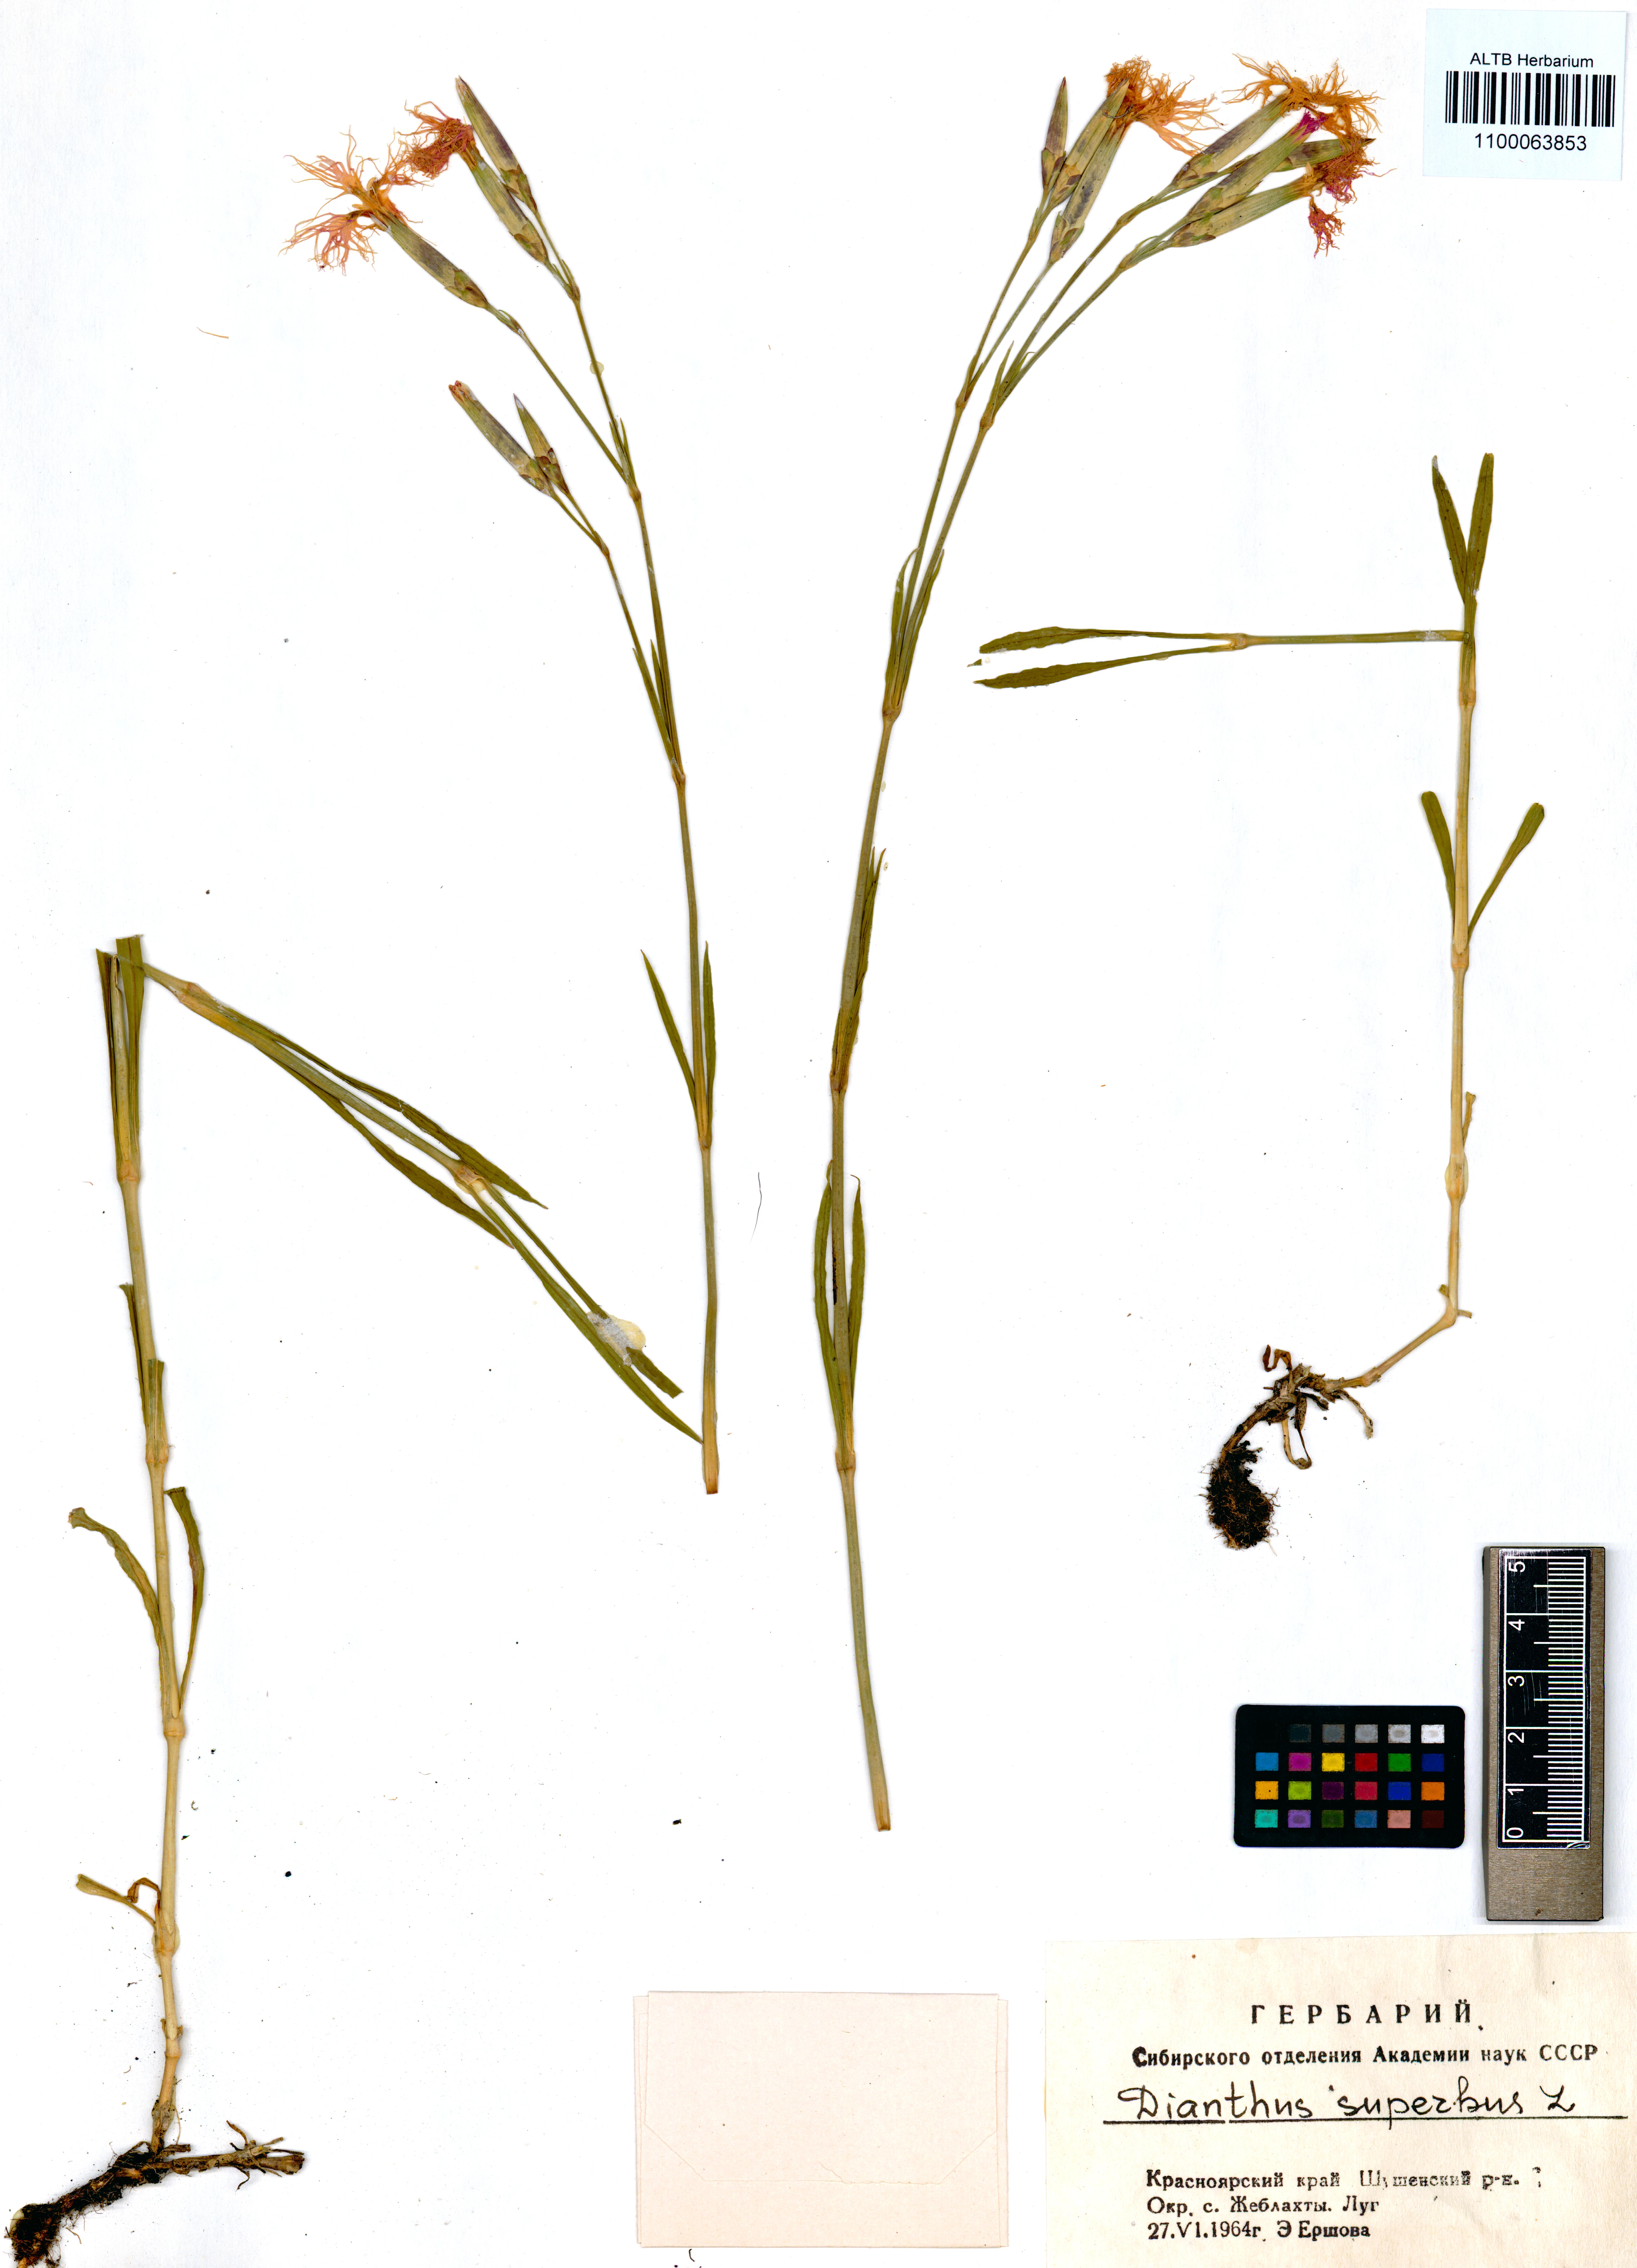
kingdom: Plantae
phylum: Tracheophyta
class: Magnoliopsida
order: Caryophyllales
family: Caryophyllaceae
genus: Dianthus
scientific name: Dianthus superbus
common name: Fringed pink
